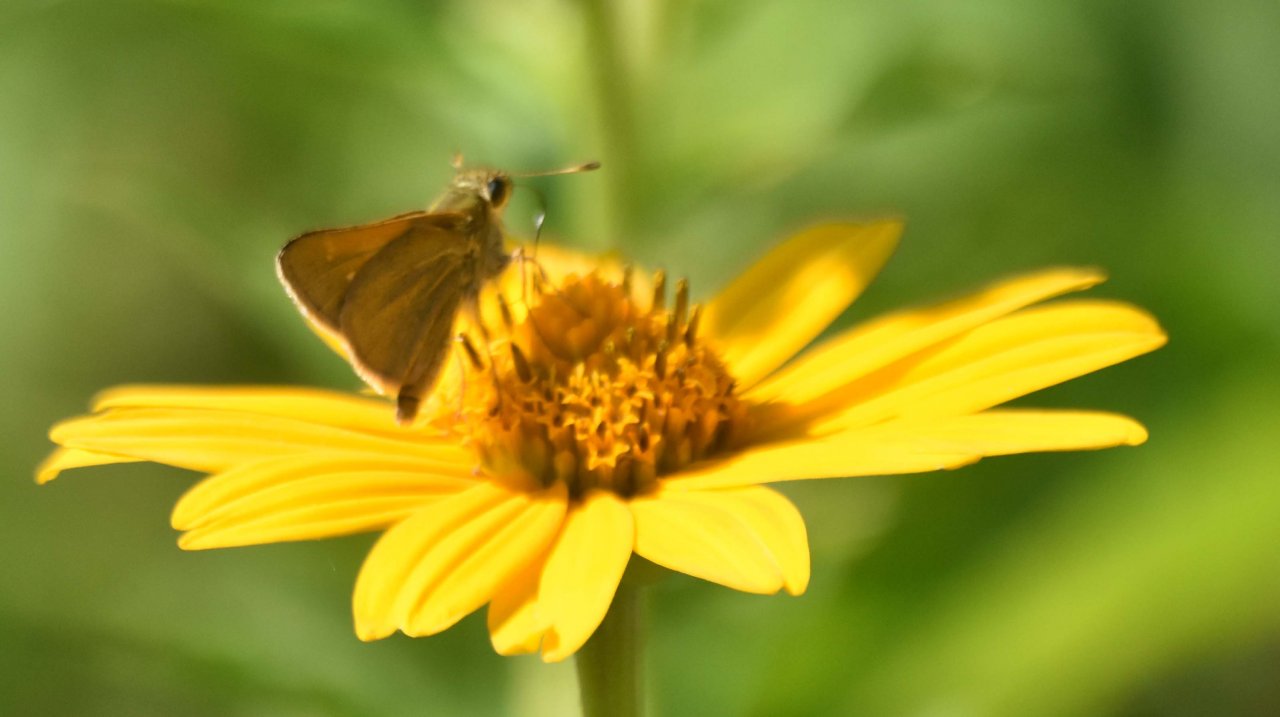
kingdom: Animalia
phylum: Arthropoda
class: Insecta
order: Lepidoptera
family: Hesperiidae
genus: Polites
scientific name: Polites themistocles
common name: Tawny-edged Skipper
